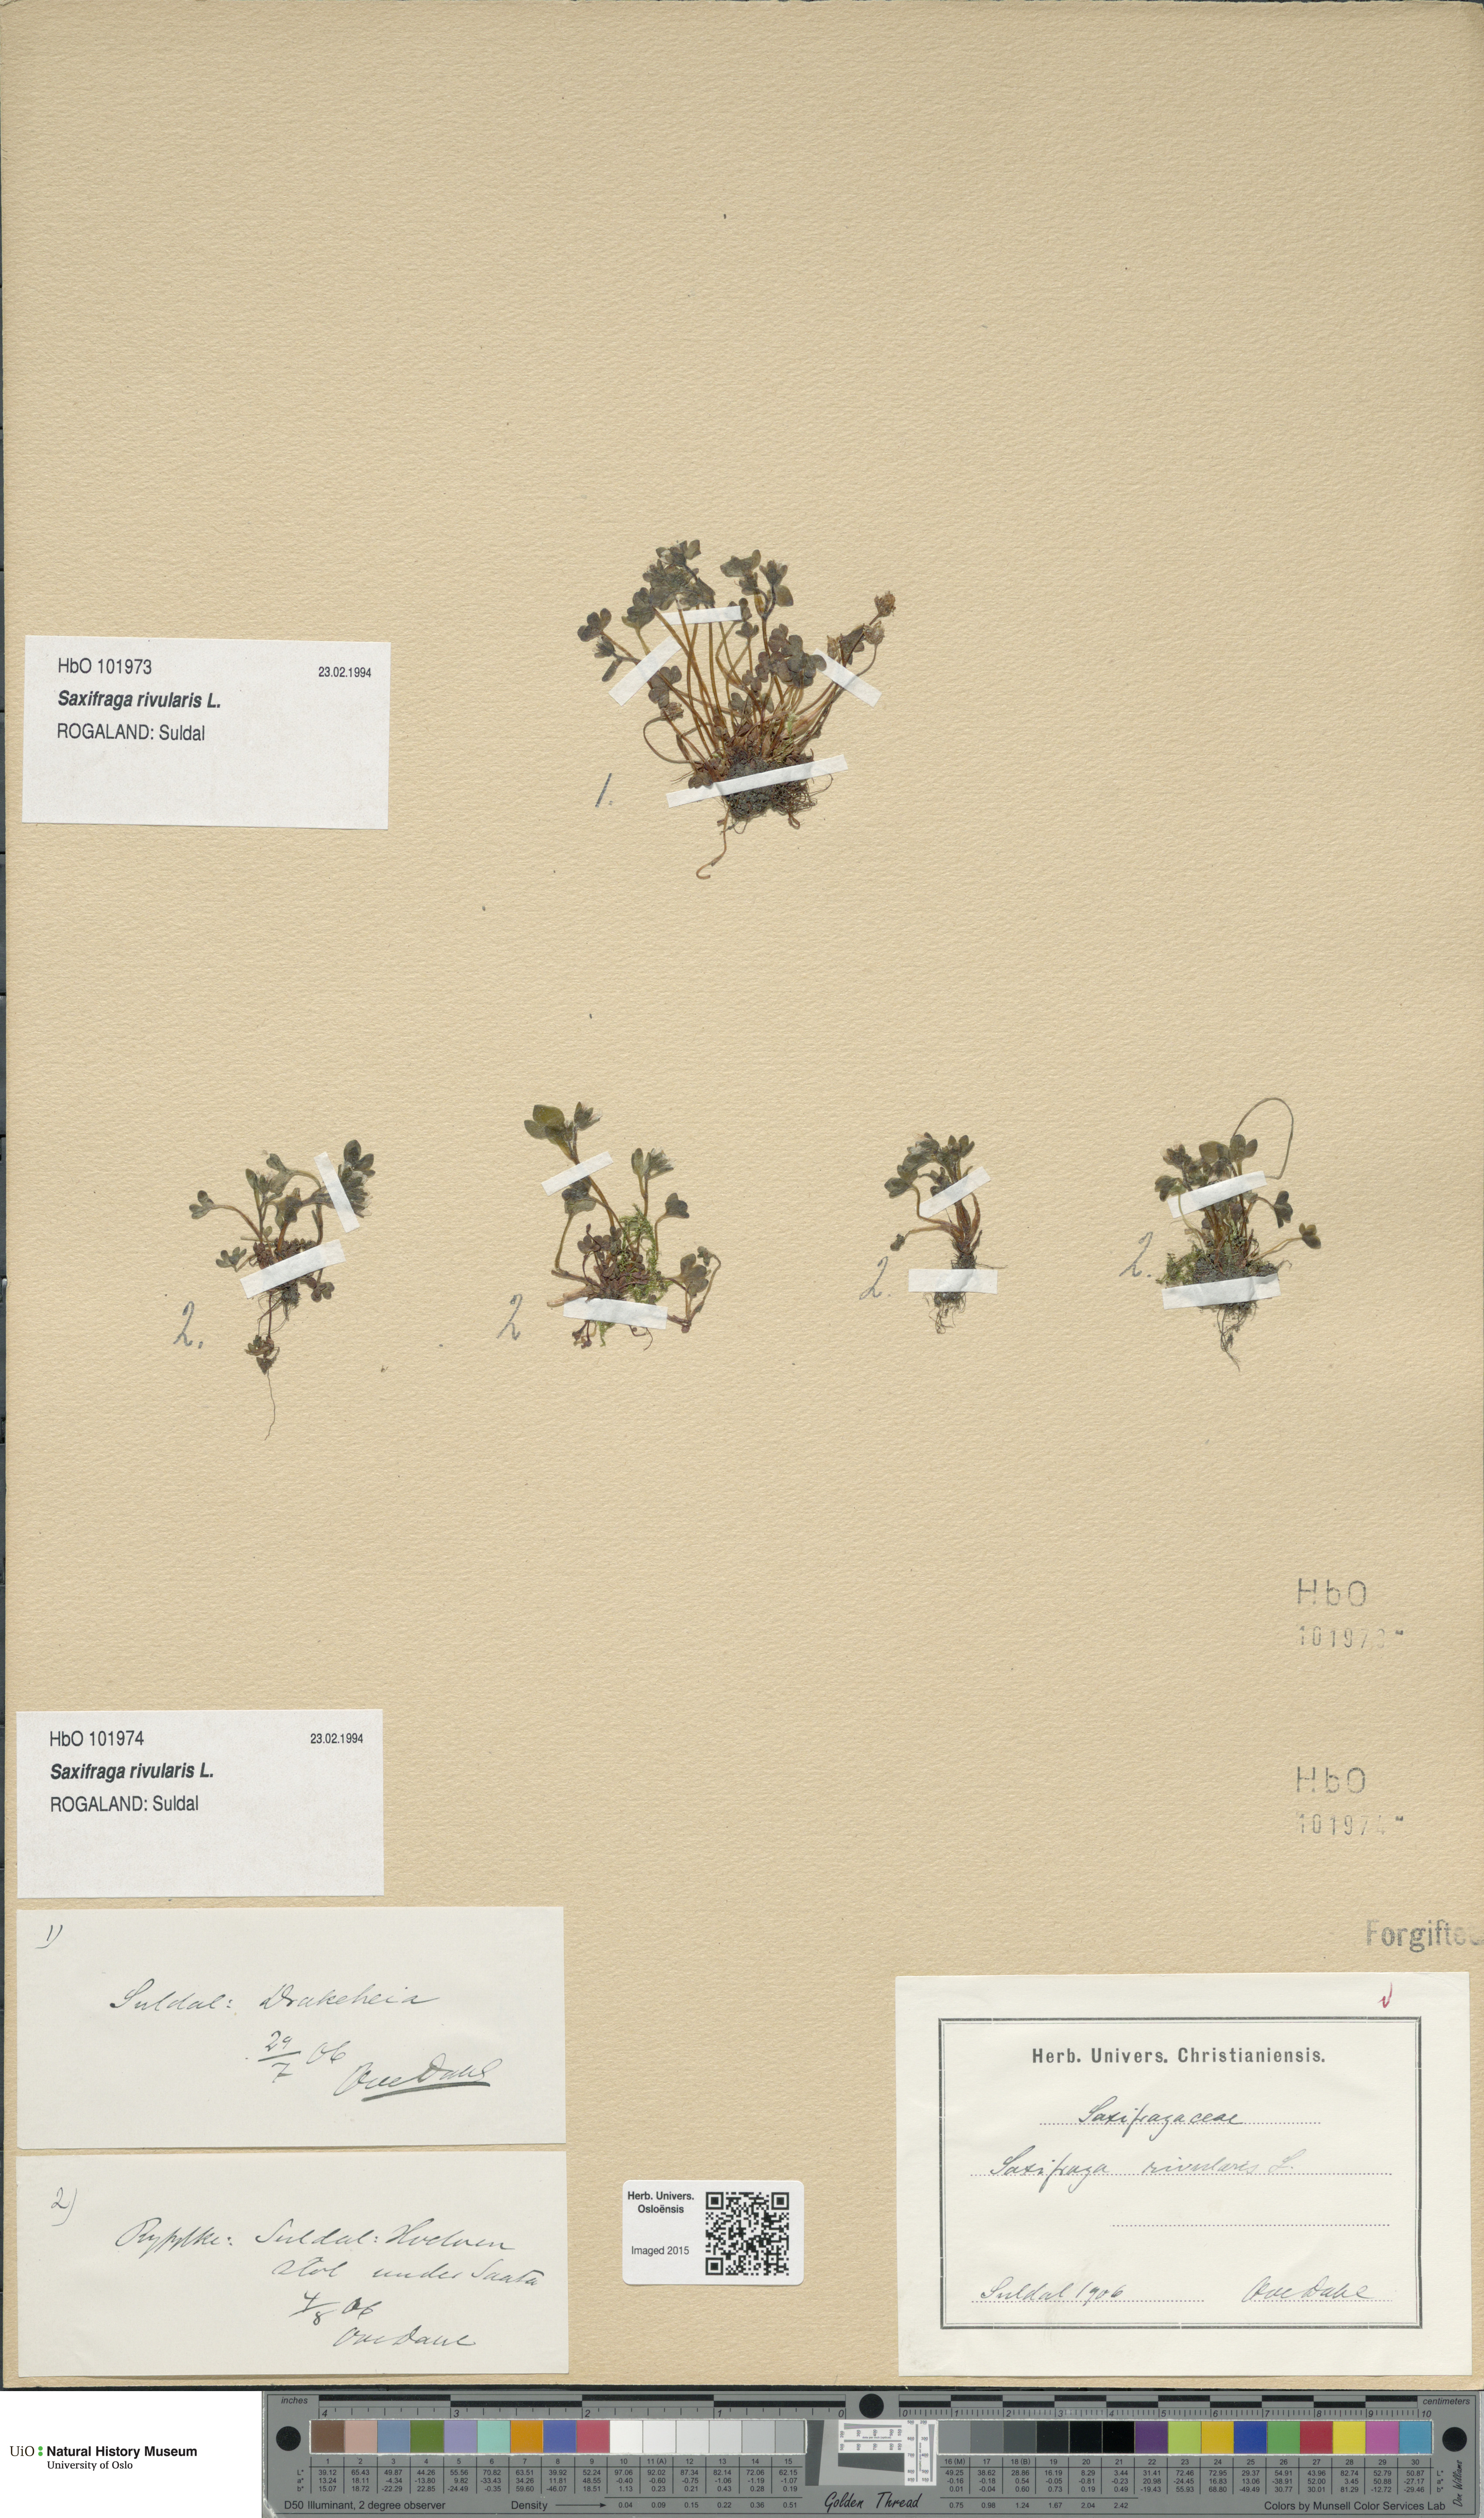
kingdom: Plantae
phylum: Tracheophyta
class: Magnoliopsida
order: Saxifragales
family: Saxifragaceae
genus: Saxifraga
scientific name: Saxifraga rivularis
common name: Highland saxifrage
